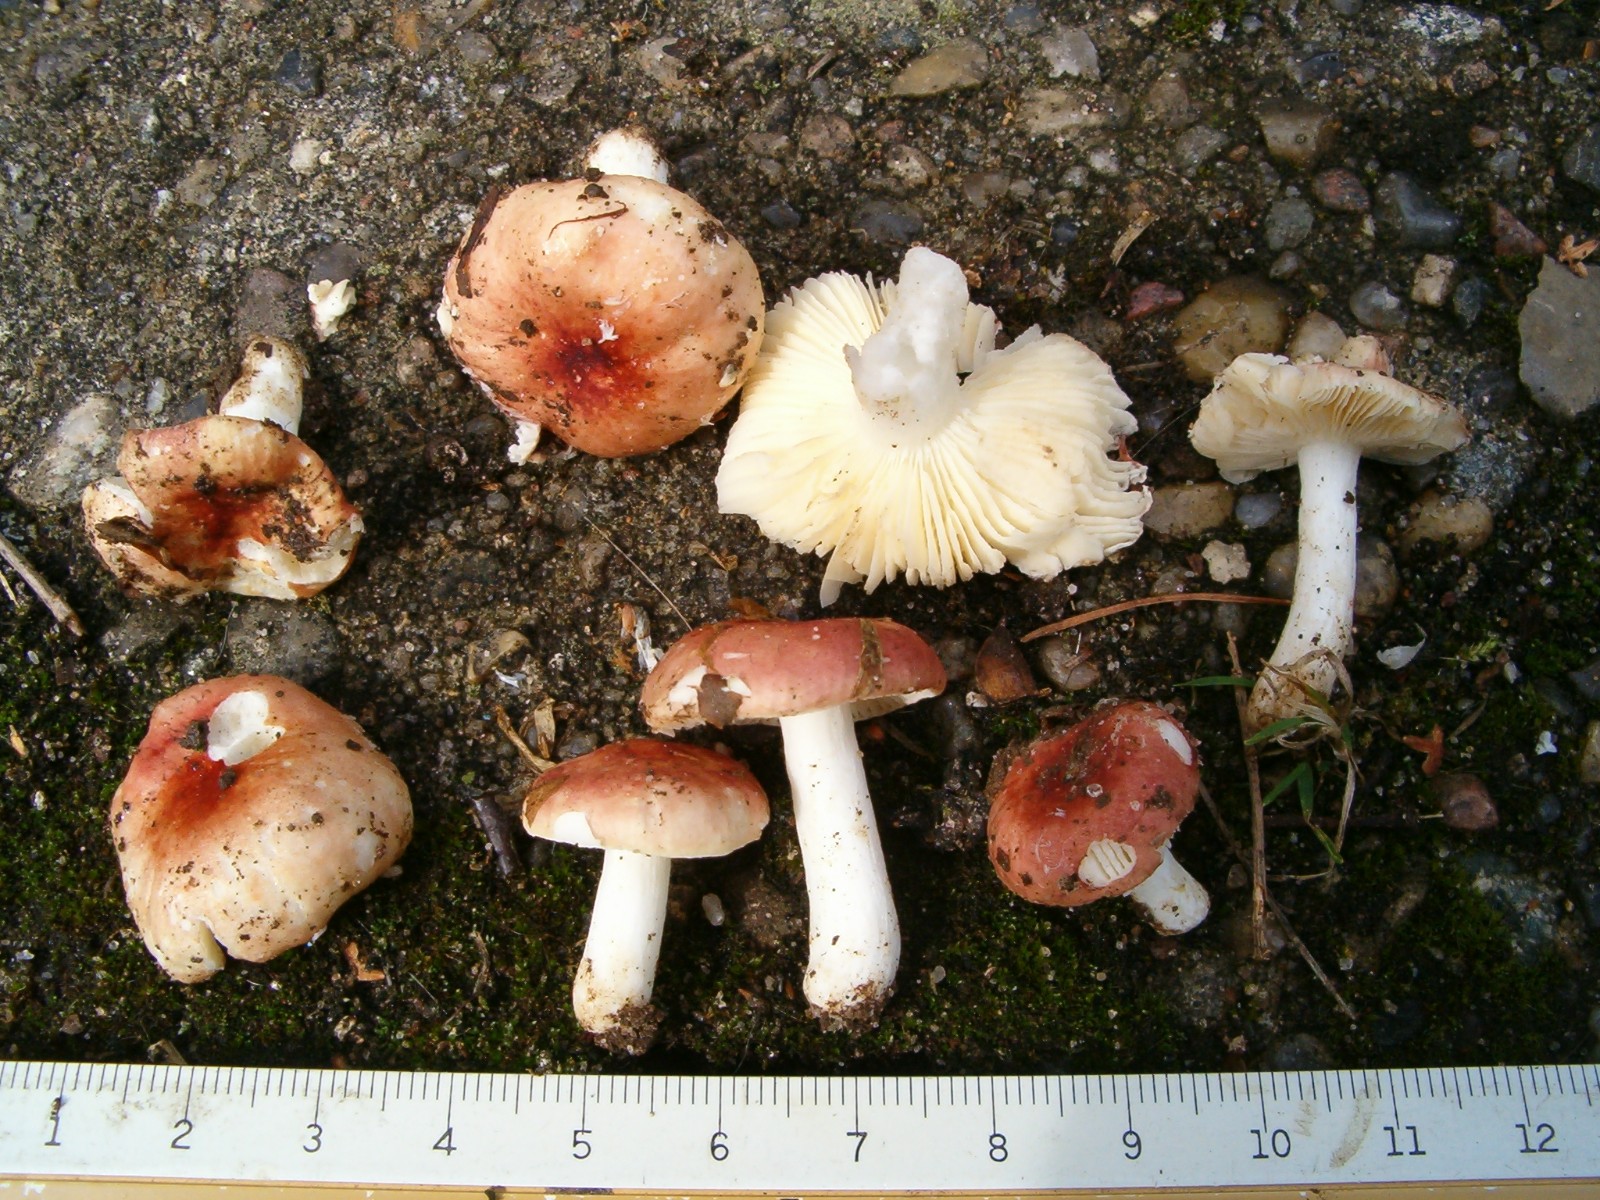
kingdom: Fungi
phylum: Basidiomycota
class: Agaricomycetes
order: Russulales
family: Russulaceae
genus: Russula
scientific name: Russula
